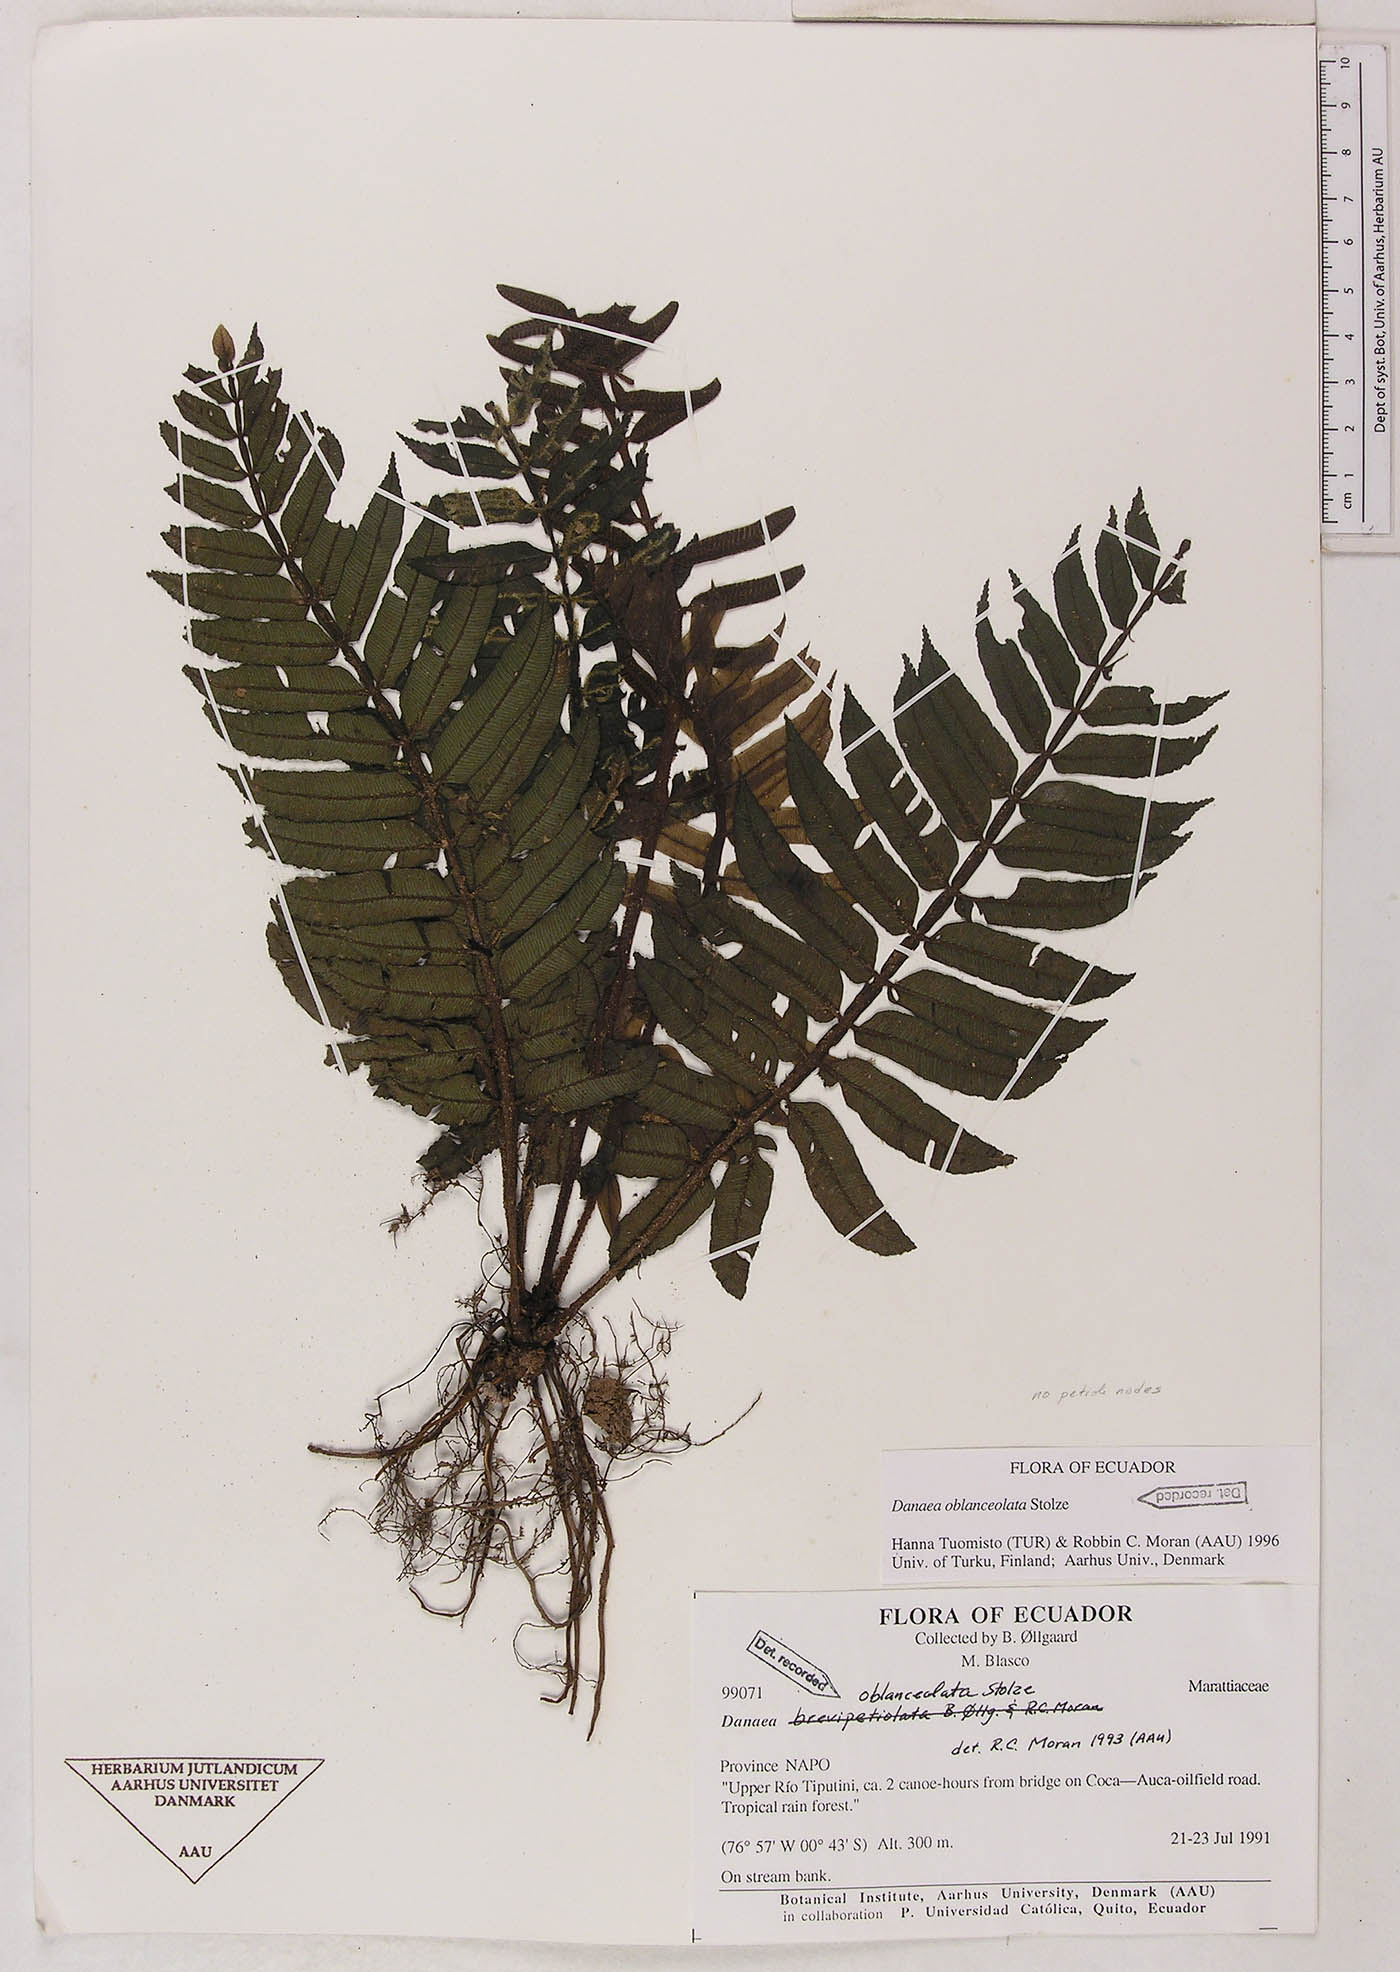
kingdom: Plantae
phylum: Tracheophyta
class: Polypodiopsida
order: Marattiales
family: Marattiaceae
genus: Danaea
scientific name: Danaea oblanceolata
